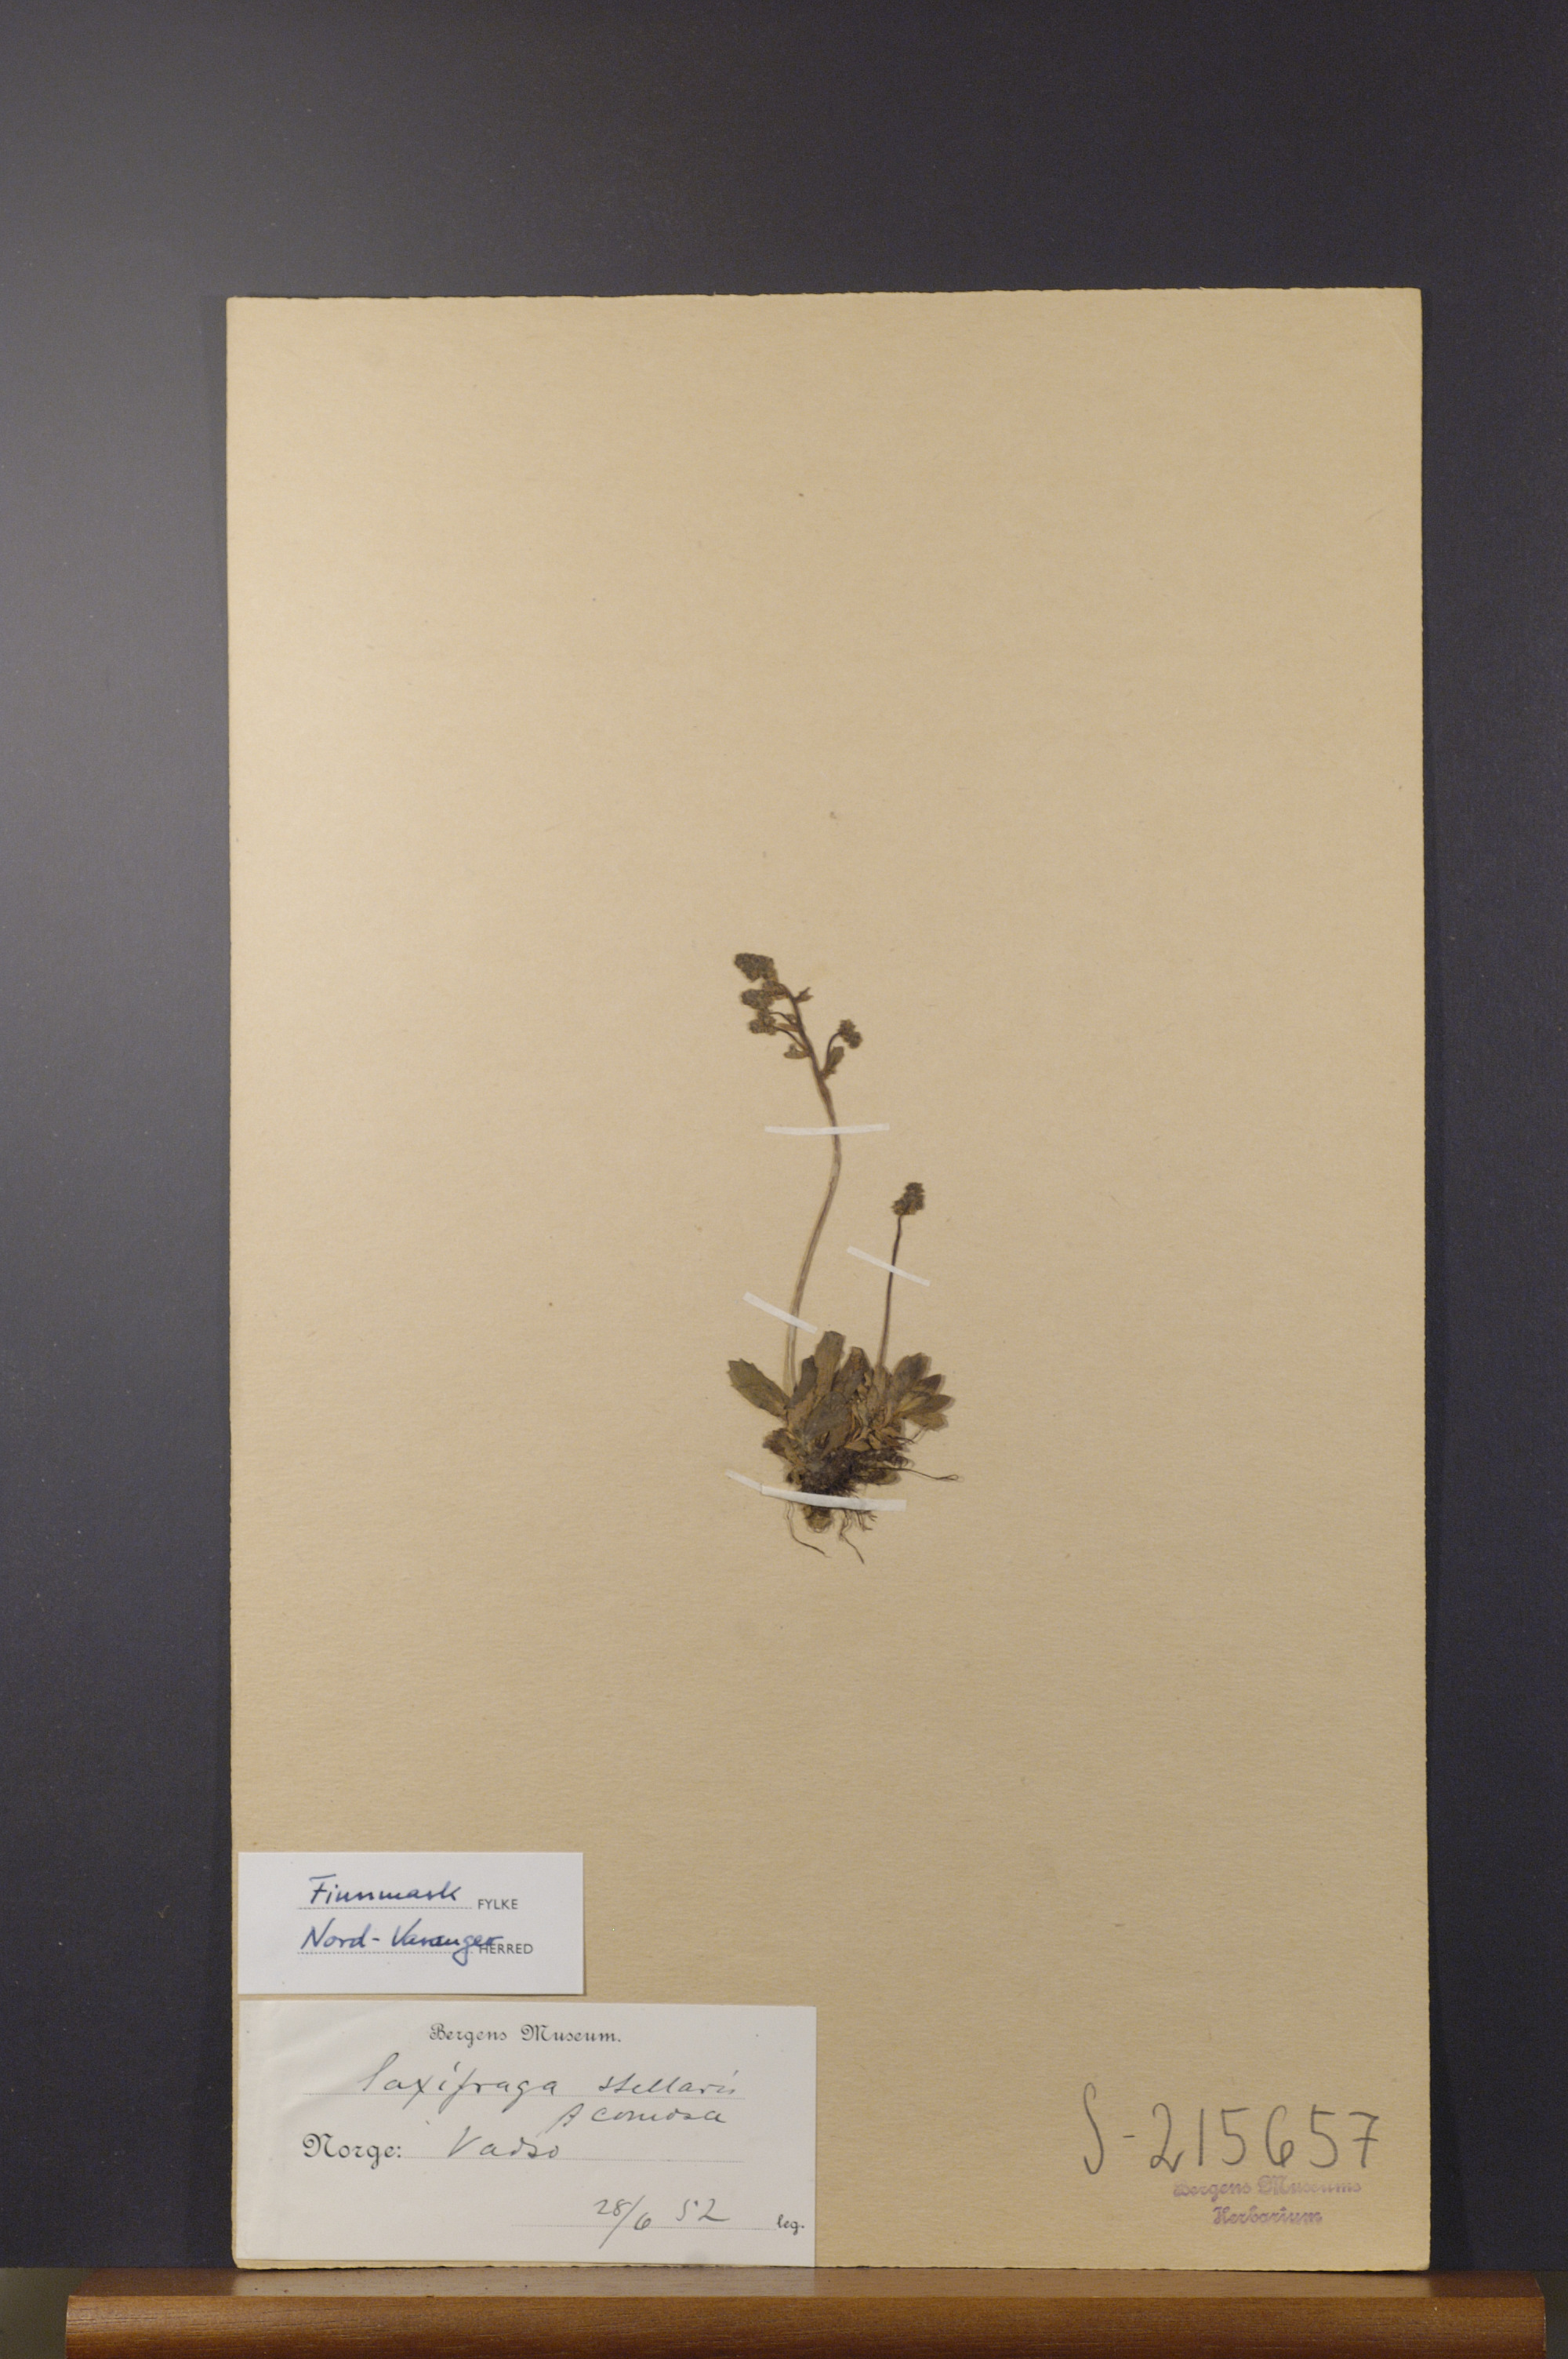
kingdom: Plantae
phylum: Tracheophyta
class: Magnoliopsida
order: Saxifragales
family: Saxifragaceae
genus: Micranthes
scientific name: Micranthes foliolosa
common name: Leafystem saxifrage
